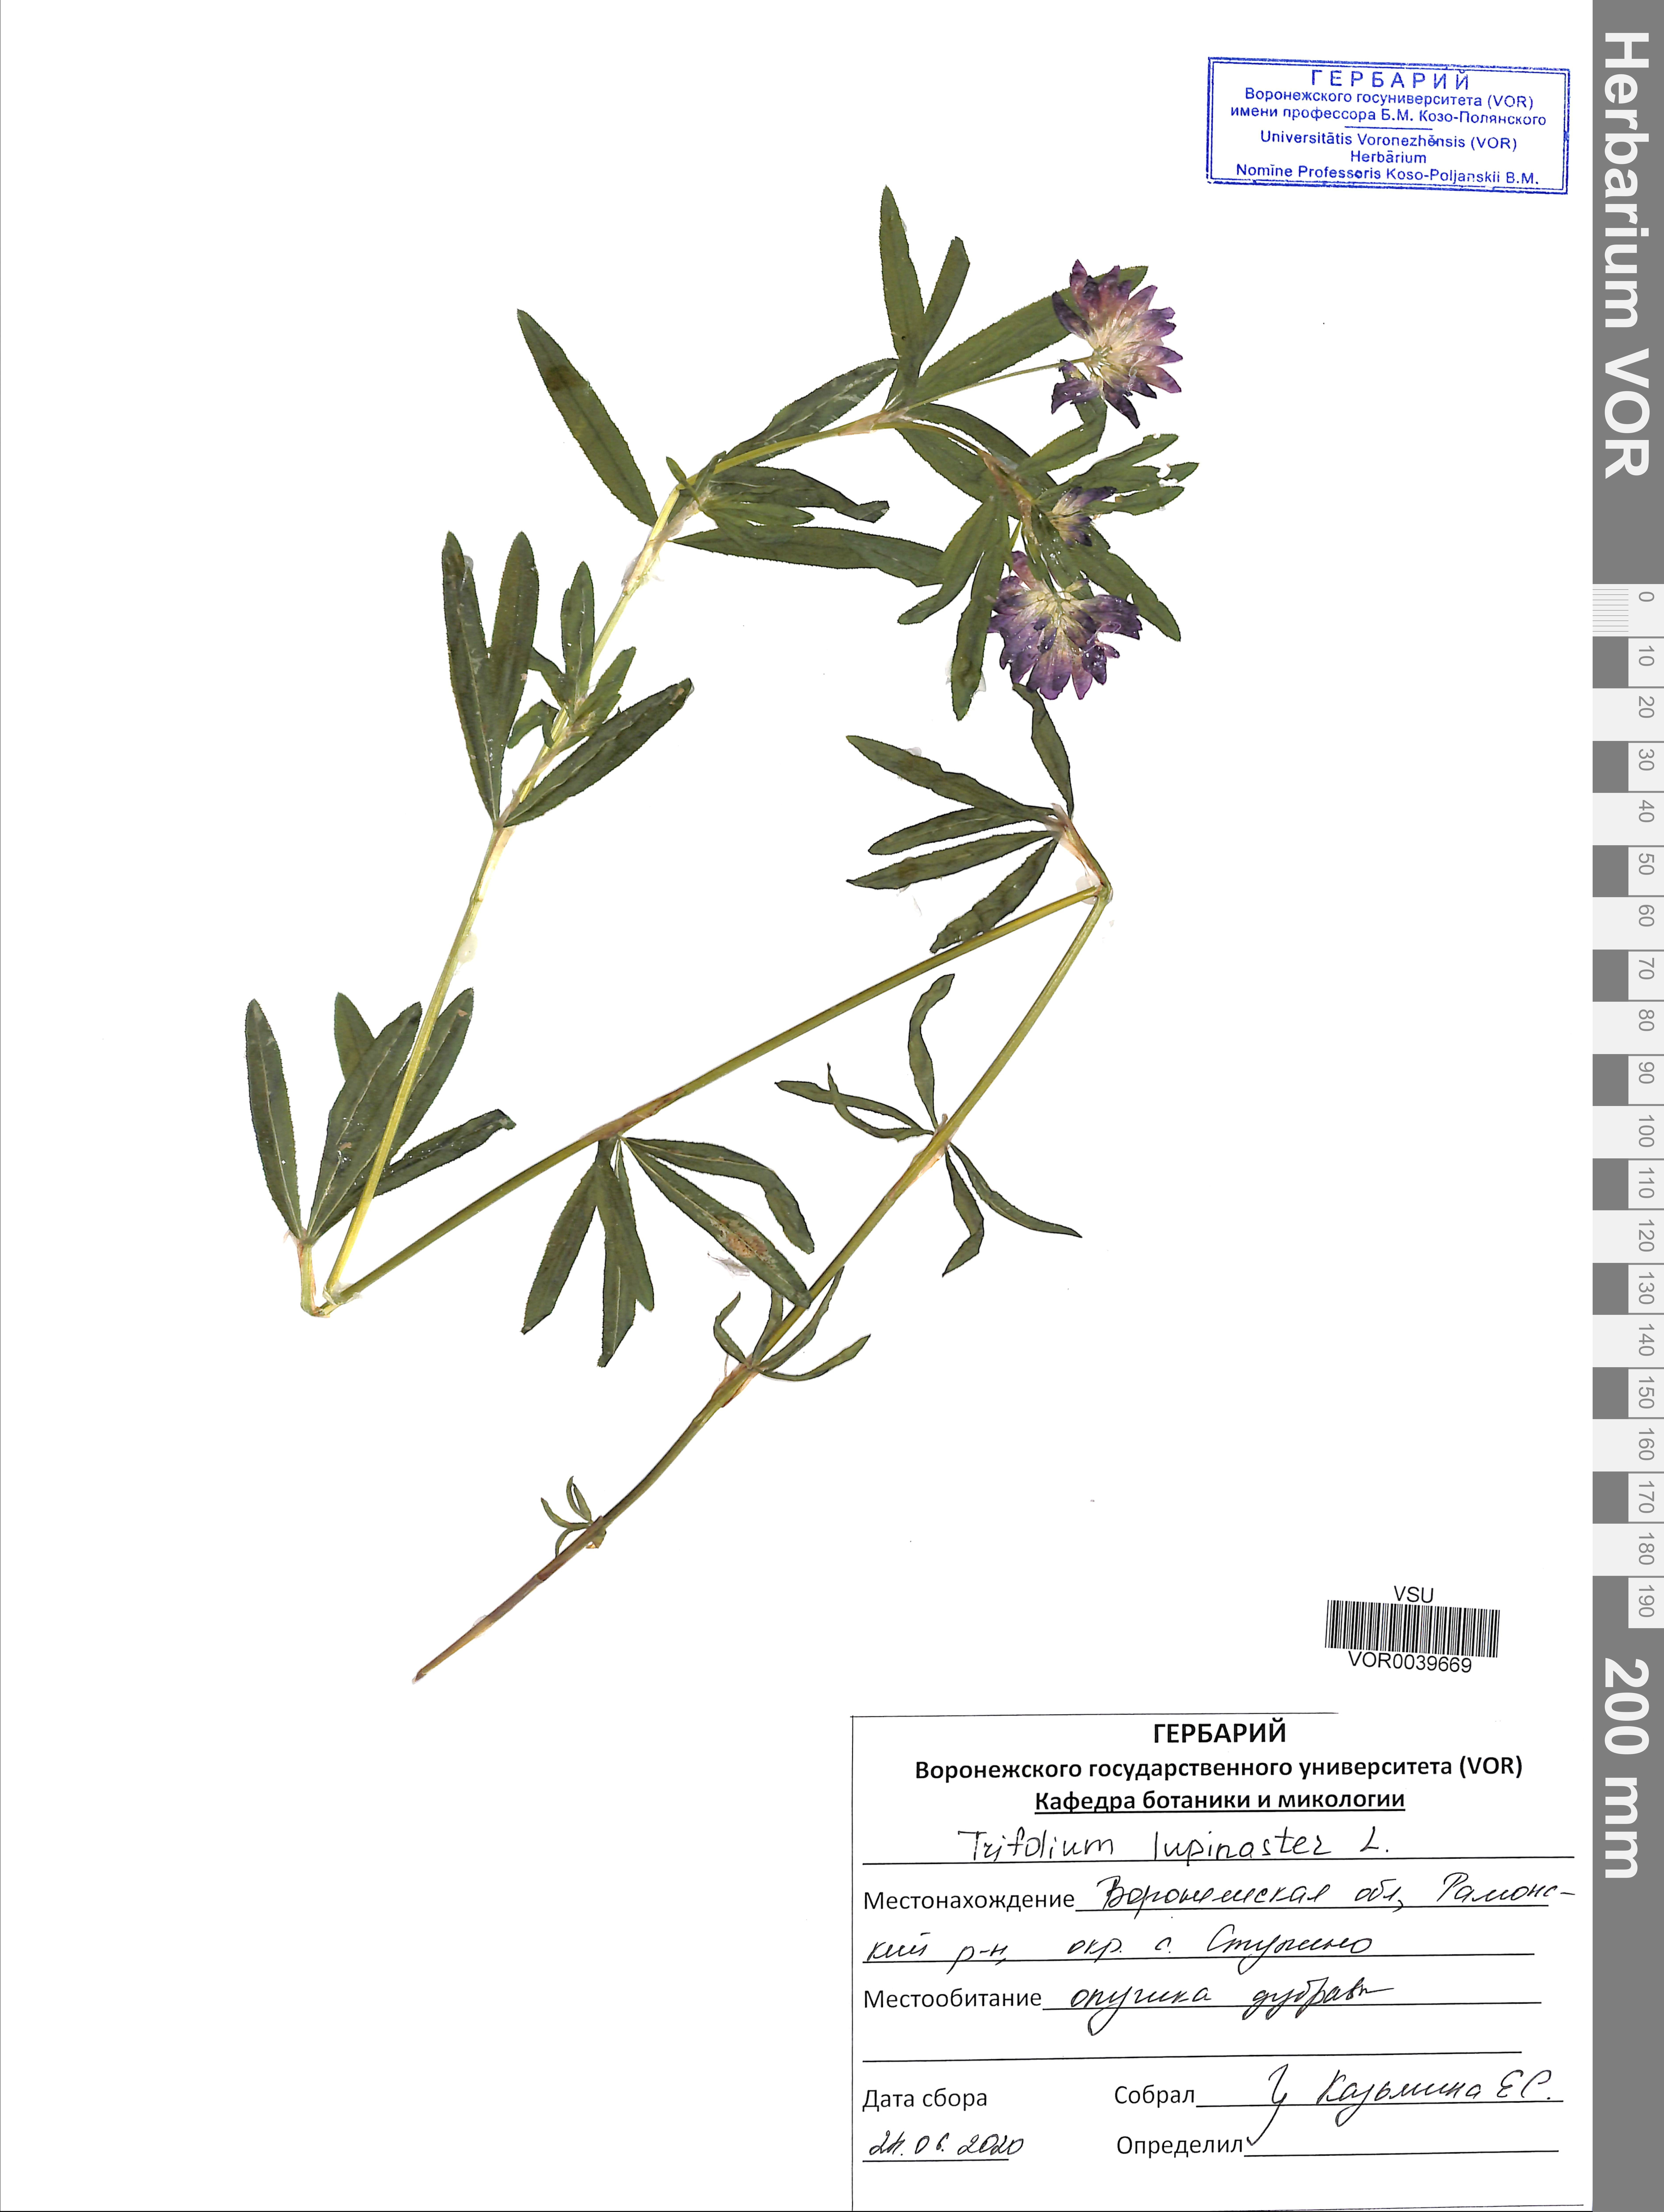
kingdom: Plantae
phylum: Tracheophyta
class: Magnoliopsida
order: Fabales
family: Fabaceae
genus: Trifolium
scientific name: Trifolium lupinaster
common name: Lupine clover
